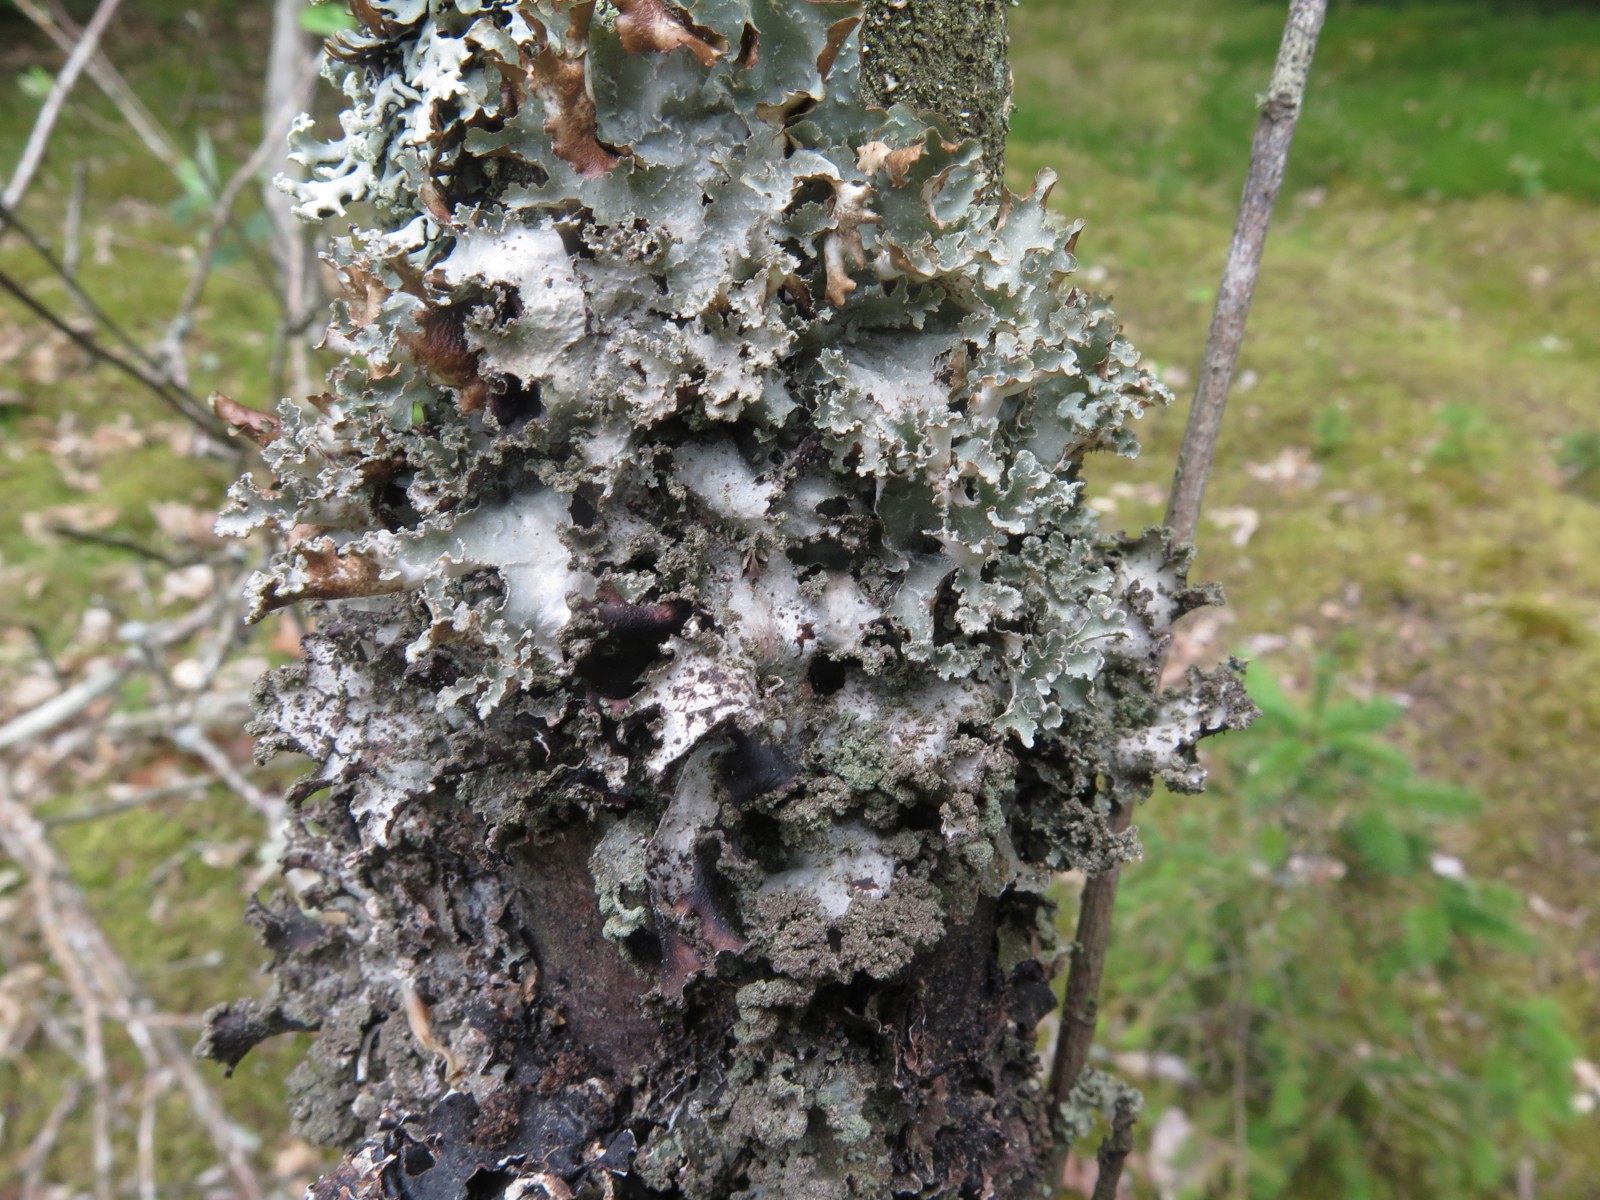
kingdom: Fungi
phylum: Ascomycota
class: Lecanoromycetes
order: Lecanorales
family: Parmeliaceae
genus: Platismatia
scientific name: Platismatia glauca
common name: blågrå papirlav
